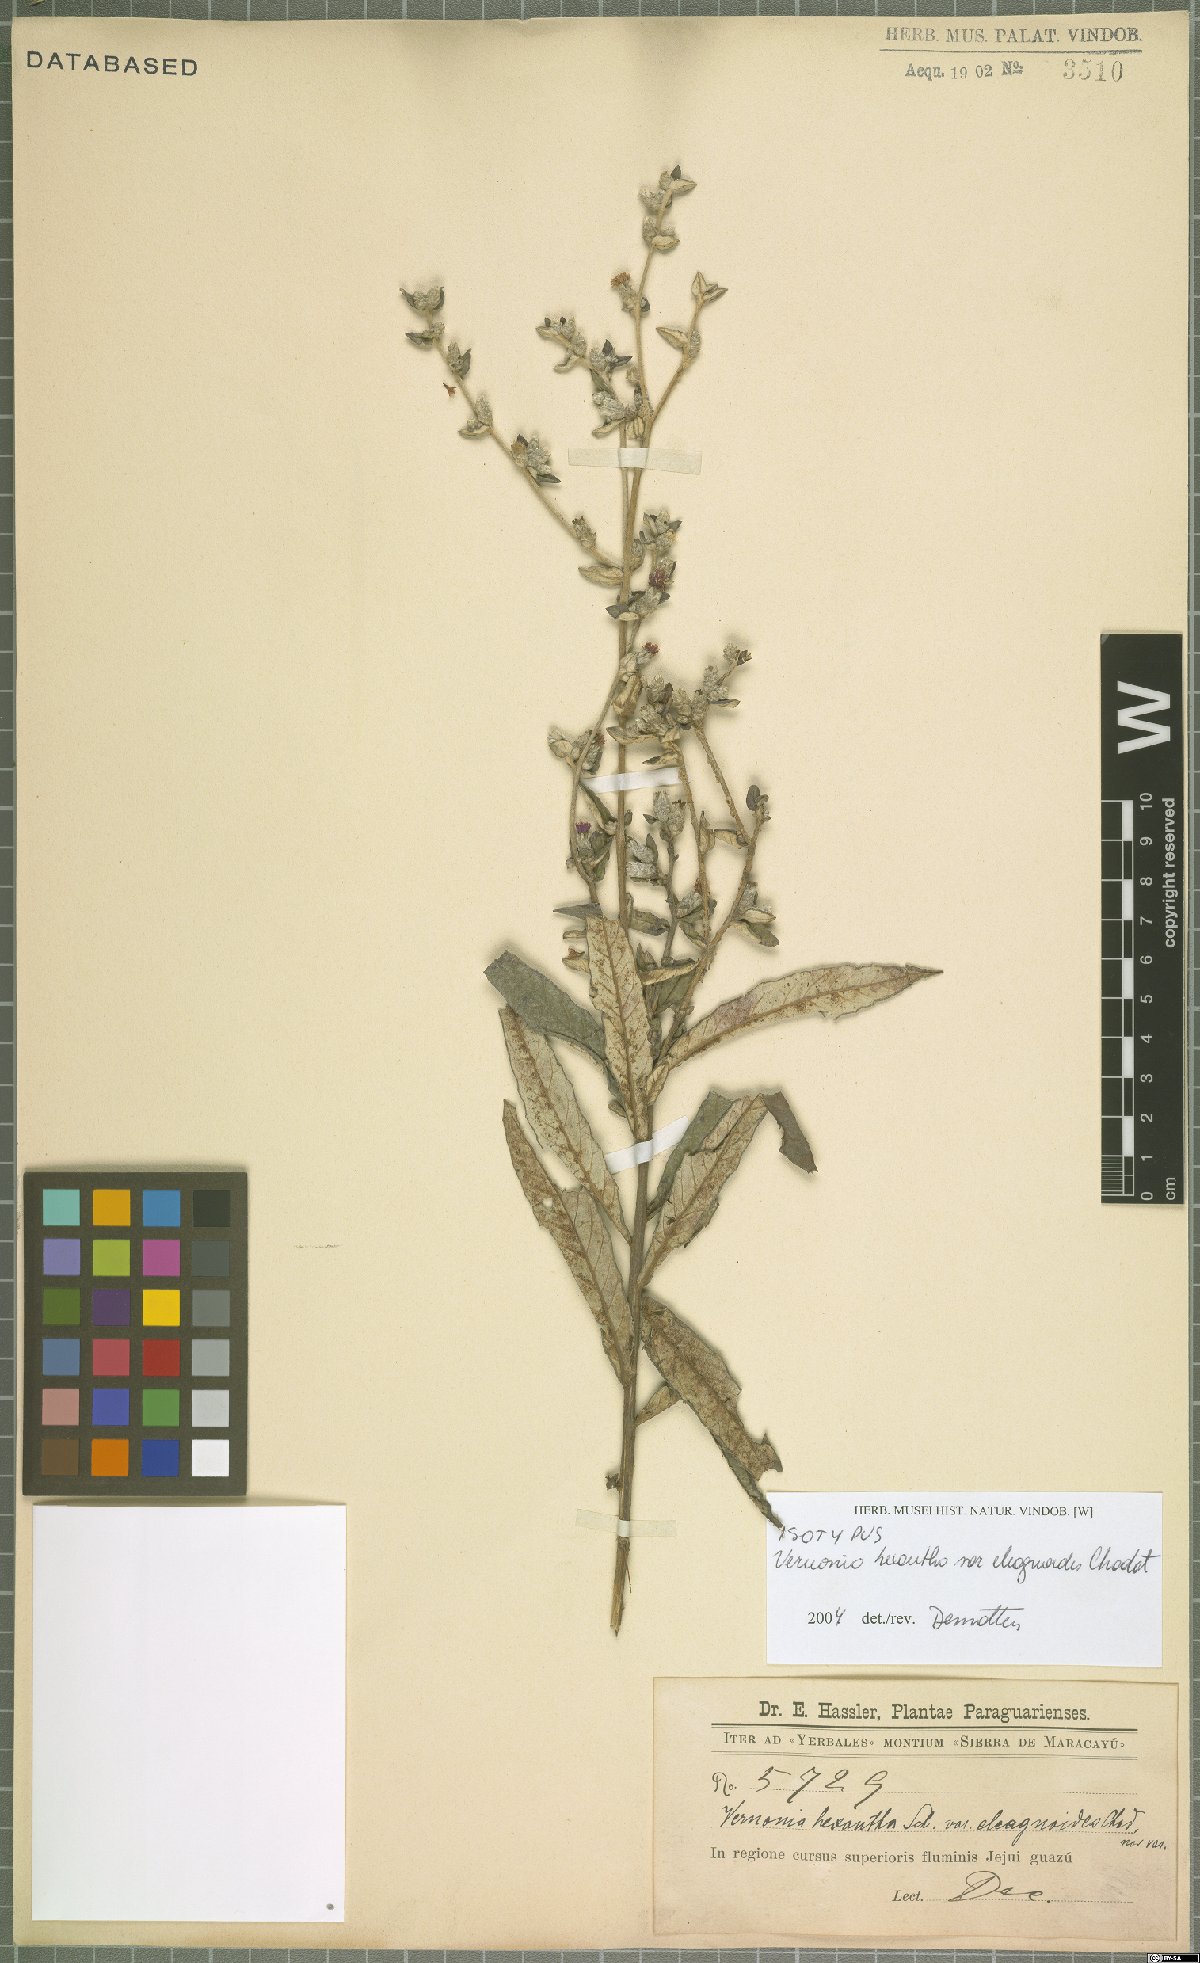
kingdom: Plantae
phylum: Tracheophyta
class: Magnoliopsida
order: Asterales
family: Asteraceae
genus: Stenocephalum
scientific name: Stenocephalum hexanthum
